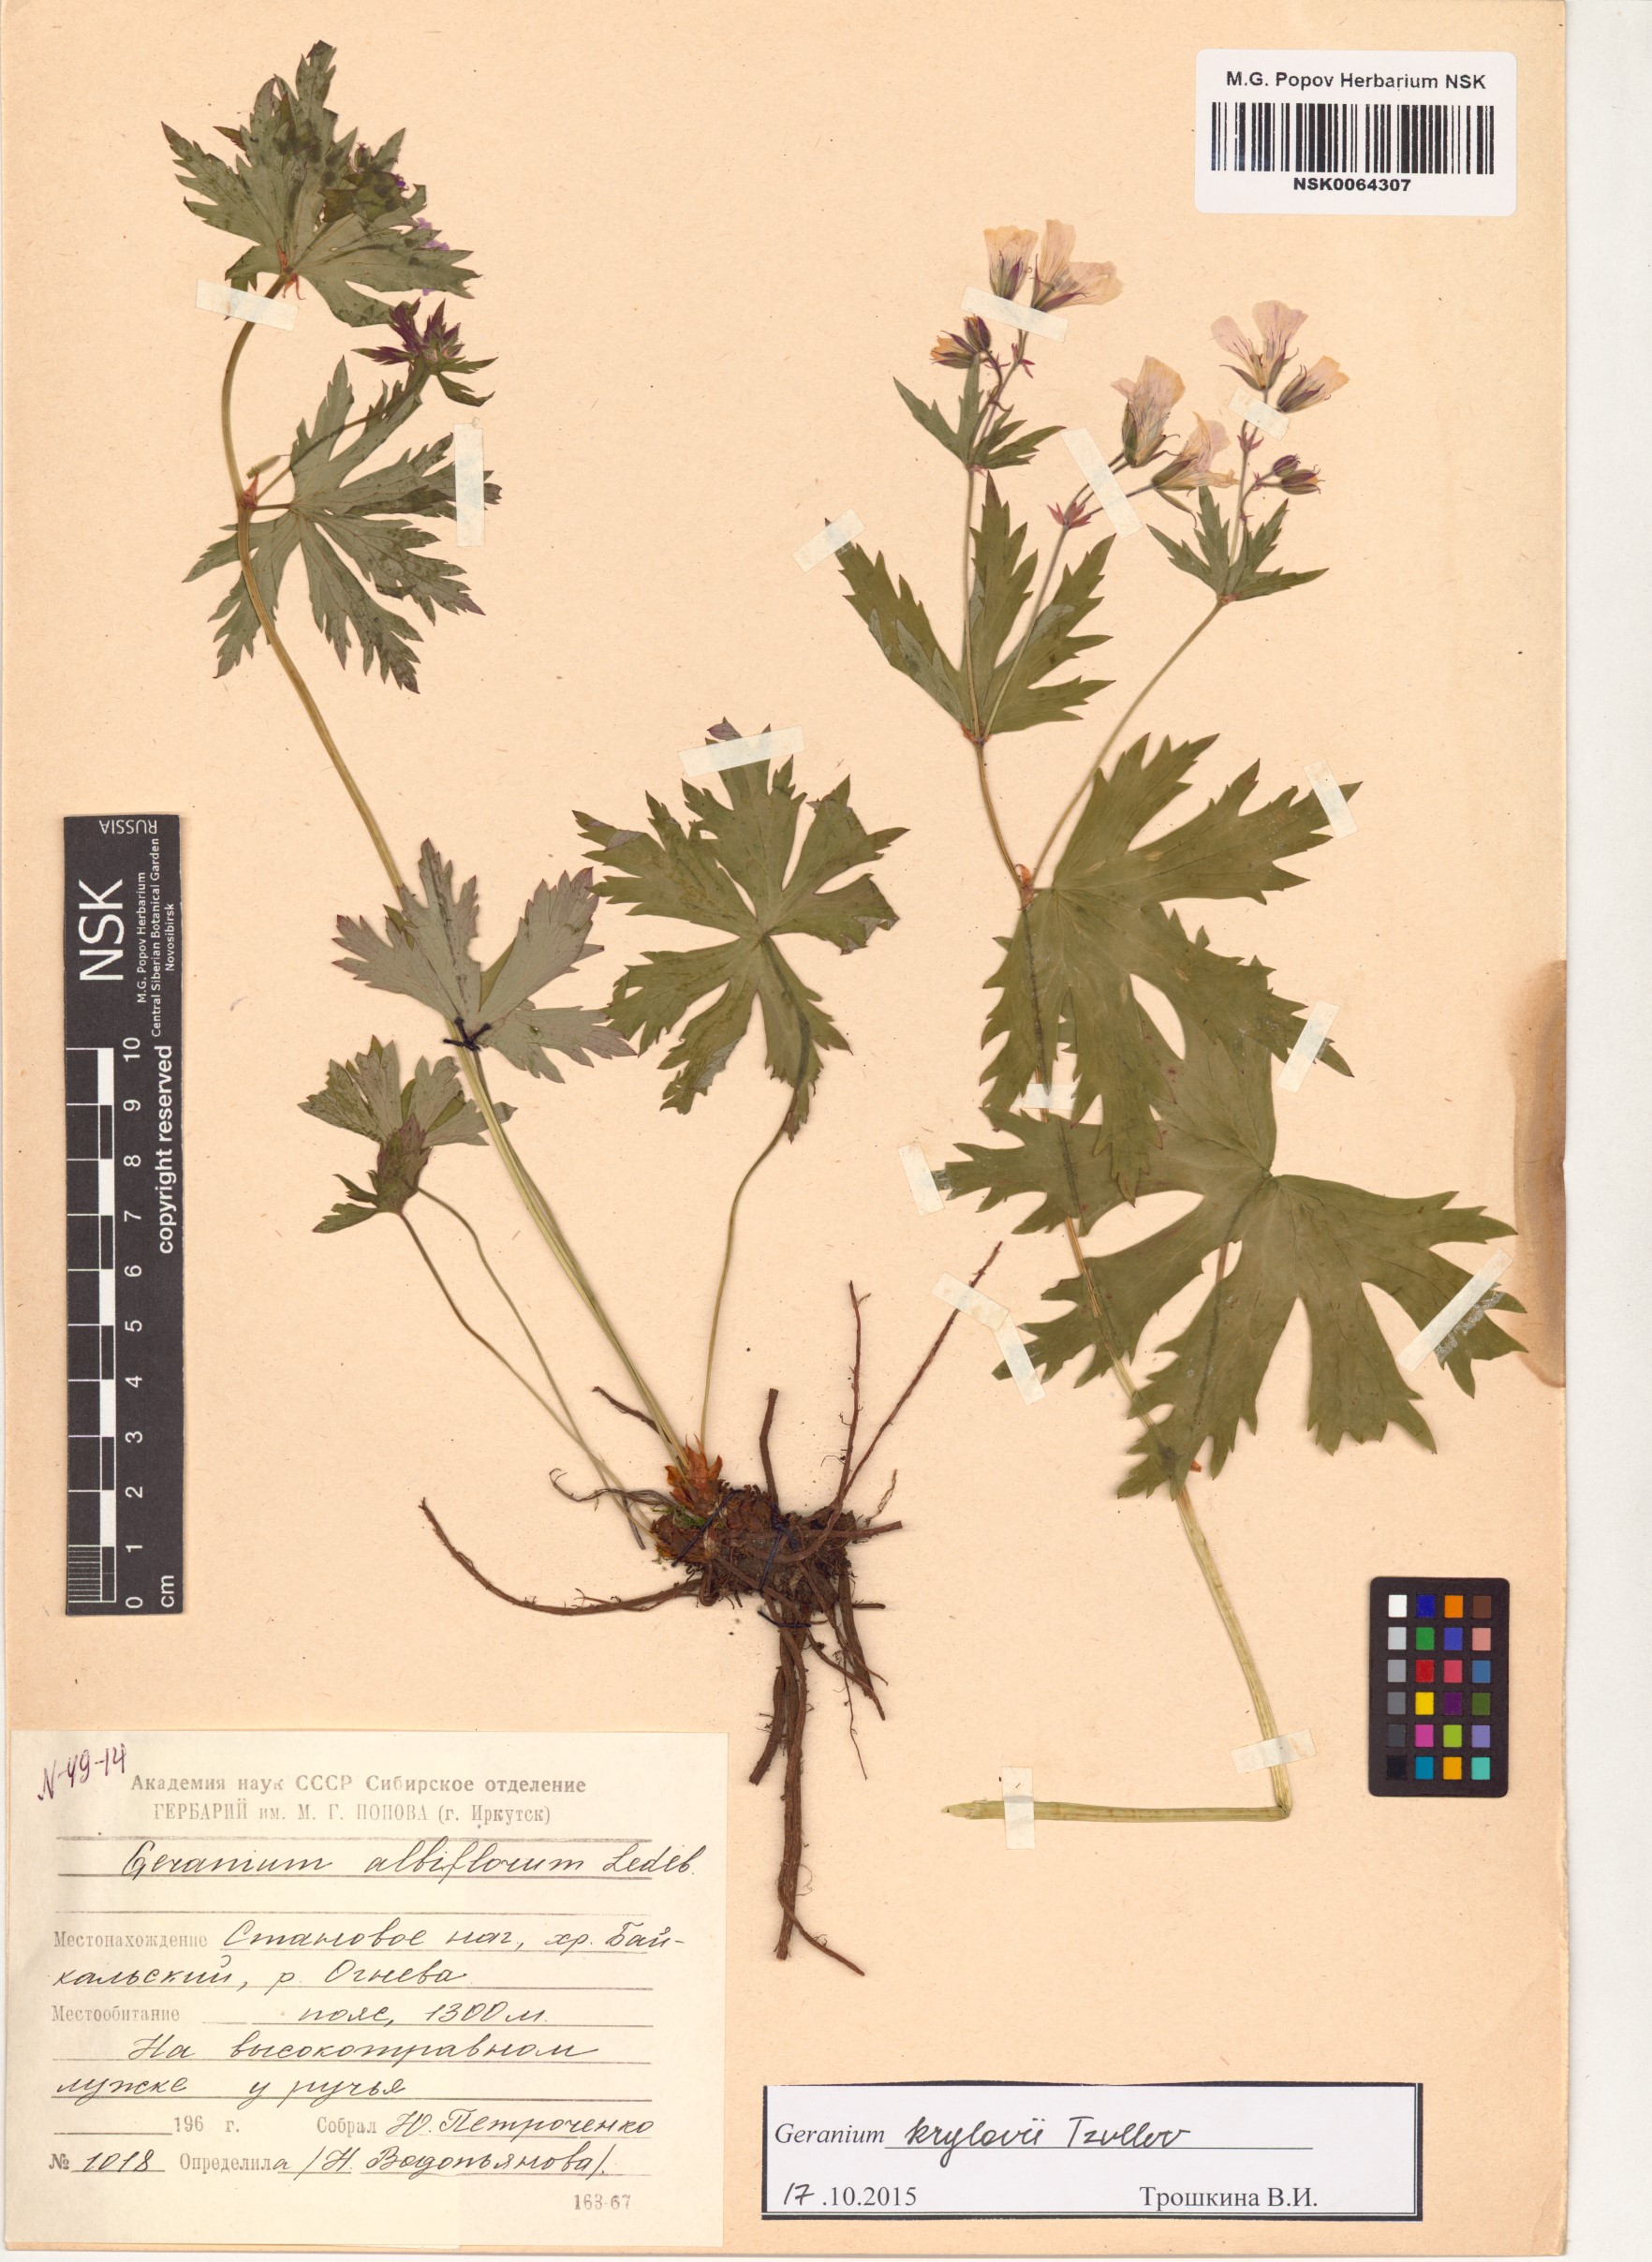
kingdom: Plantae
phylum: Tracheophyta
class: Magnoliopsida
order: Geraniales
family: Geraniaceae
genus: Geranium
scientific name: Geranium sylvaticum
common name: Wood crane's-bill
